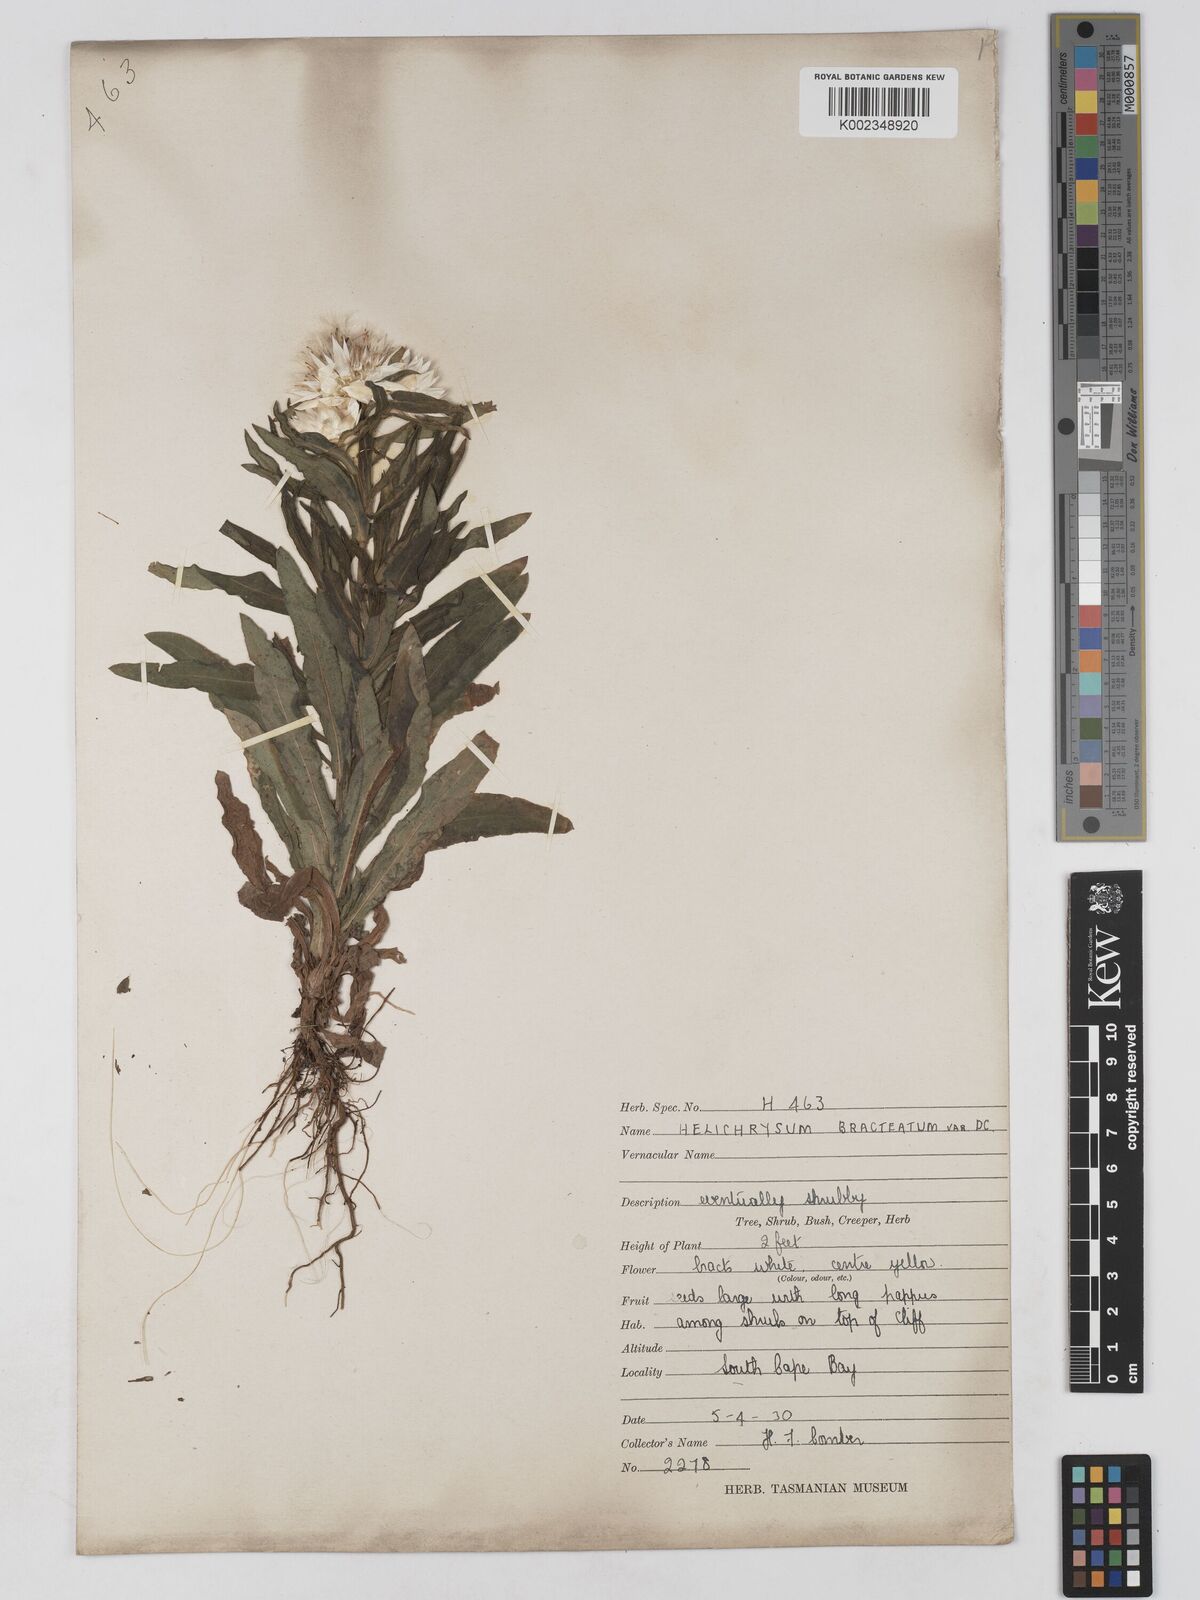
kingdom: Plantae
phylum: Tracheophyta
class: Magnoliopsida
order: Asterales
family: Asteraceae
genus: Xerochrysum
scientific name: Xerochrysum papillosum
